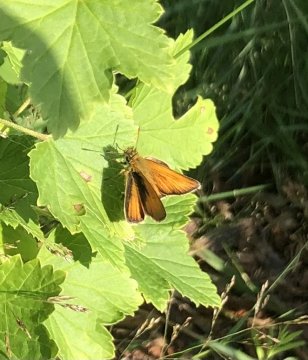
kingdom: Animalia
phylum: Arthropoda
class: Insecta
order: Lepidoptera
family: Hesperiidae
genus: Thymelicus
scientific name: Thymelicus lineola
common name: European Skipper
